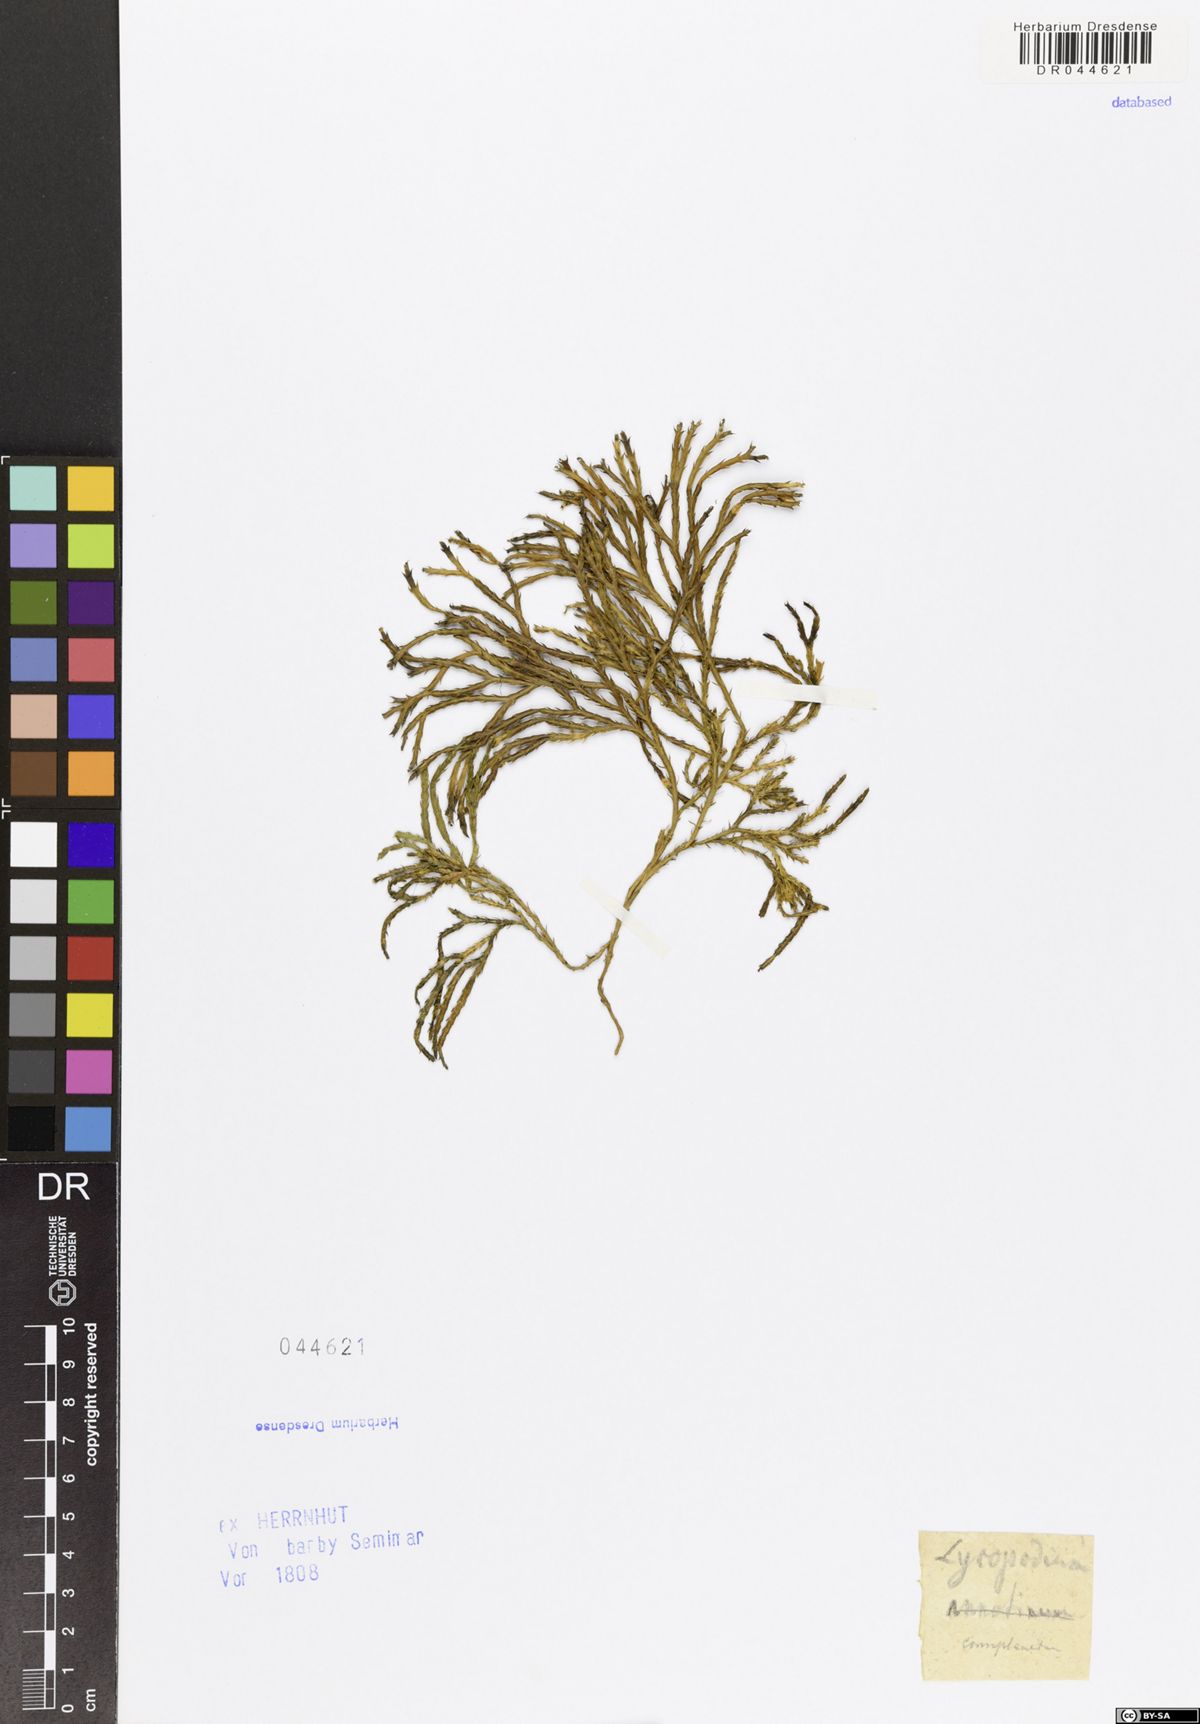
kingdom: Plantae
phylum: Tracheophyta
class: Lycopodiopsida
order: Lycopodiales
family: Lycopodiaceae
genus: Diphasiastrum
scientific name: Diphasiastrum complanatum
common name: Northern running-pine
